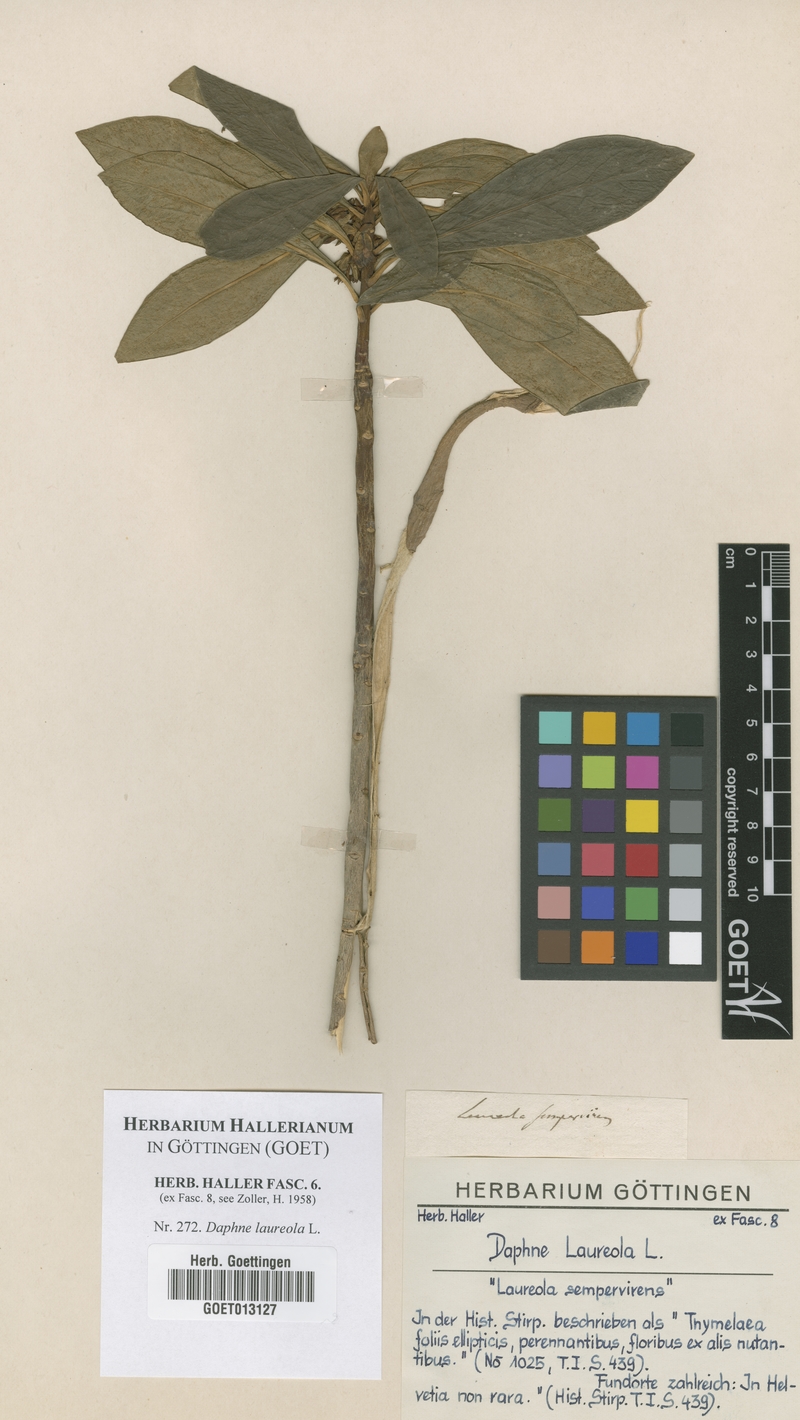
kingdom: Plantae
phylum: Tracheophyta
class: Magnoliopsida
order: Malvales
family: Thymelaeaceae
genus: Daphne
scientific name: Daphne laureola
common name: Spurge-laurel
